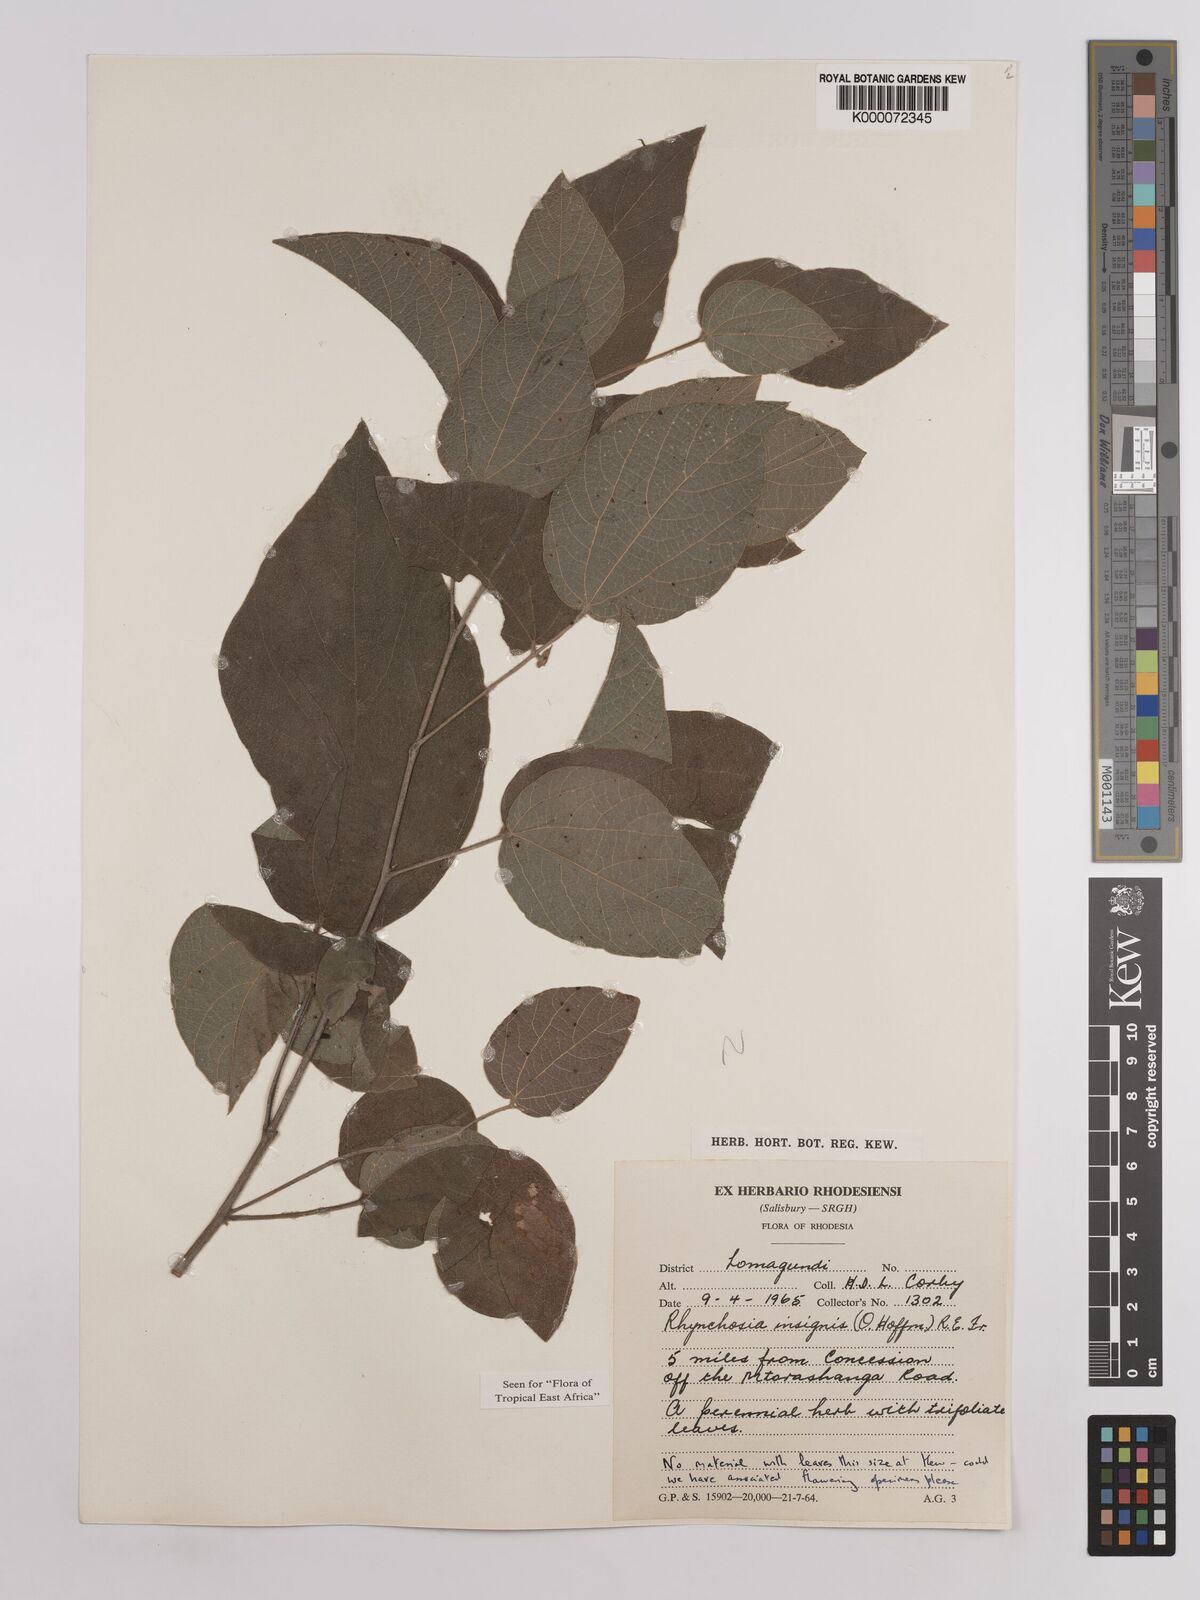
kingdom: Plantae
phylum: Tracheophyta
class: Magnoliopsida
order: Fabales
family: Fabaceae
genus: Rhynchosia
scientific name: Rhynchosia insignis
